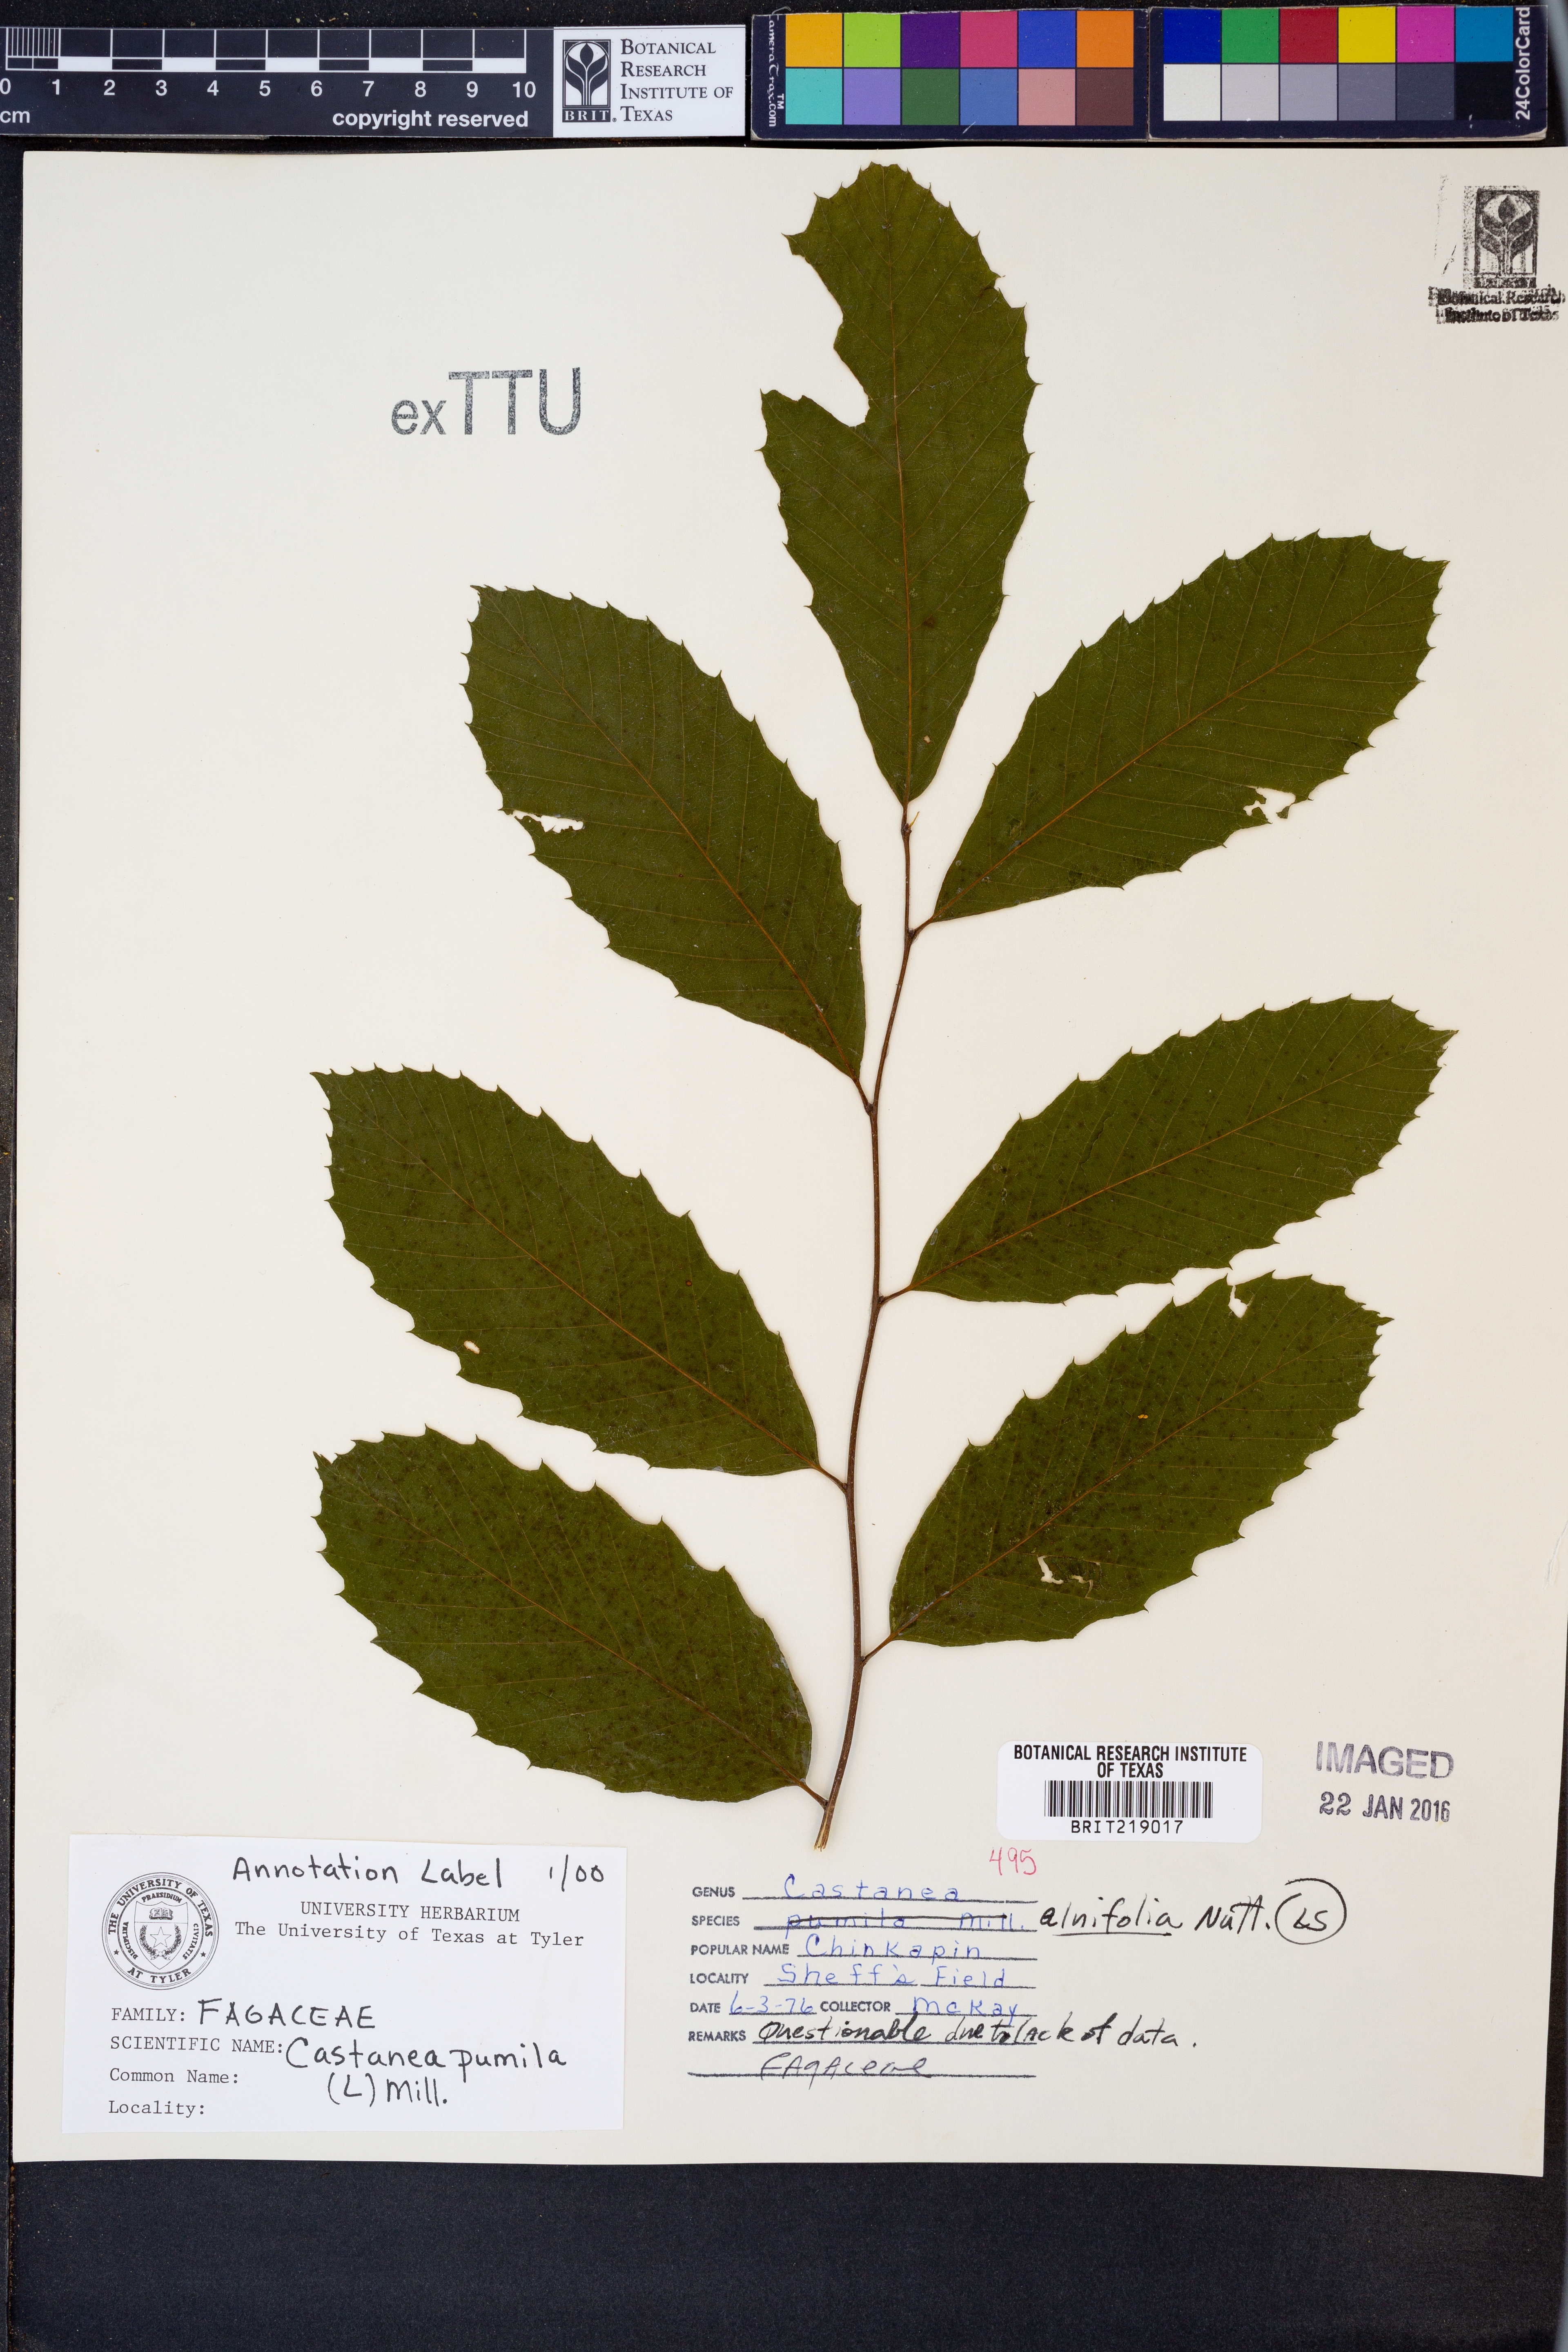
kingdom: Plantae
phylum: Tracheophyta
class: Magnoliopsida
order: Fagales
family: Fagaceae
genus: Castanea
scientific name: Castanea pumila
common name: Chinkapin
